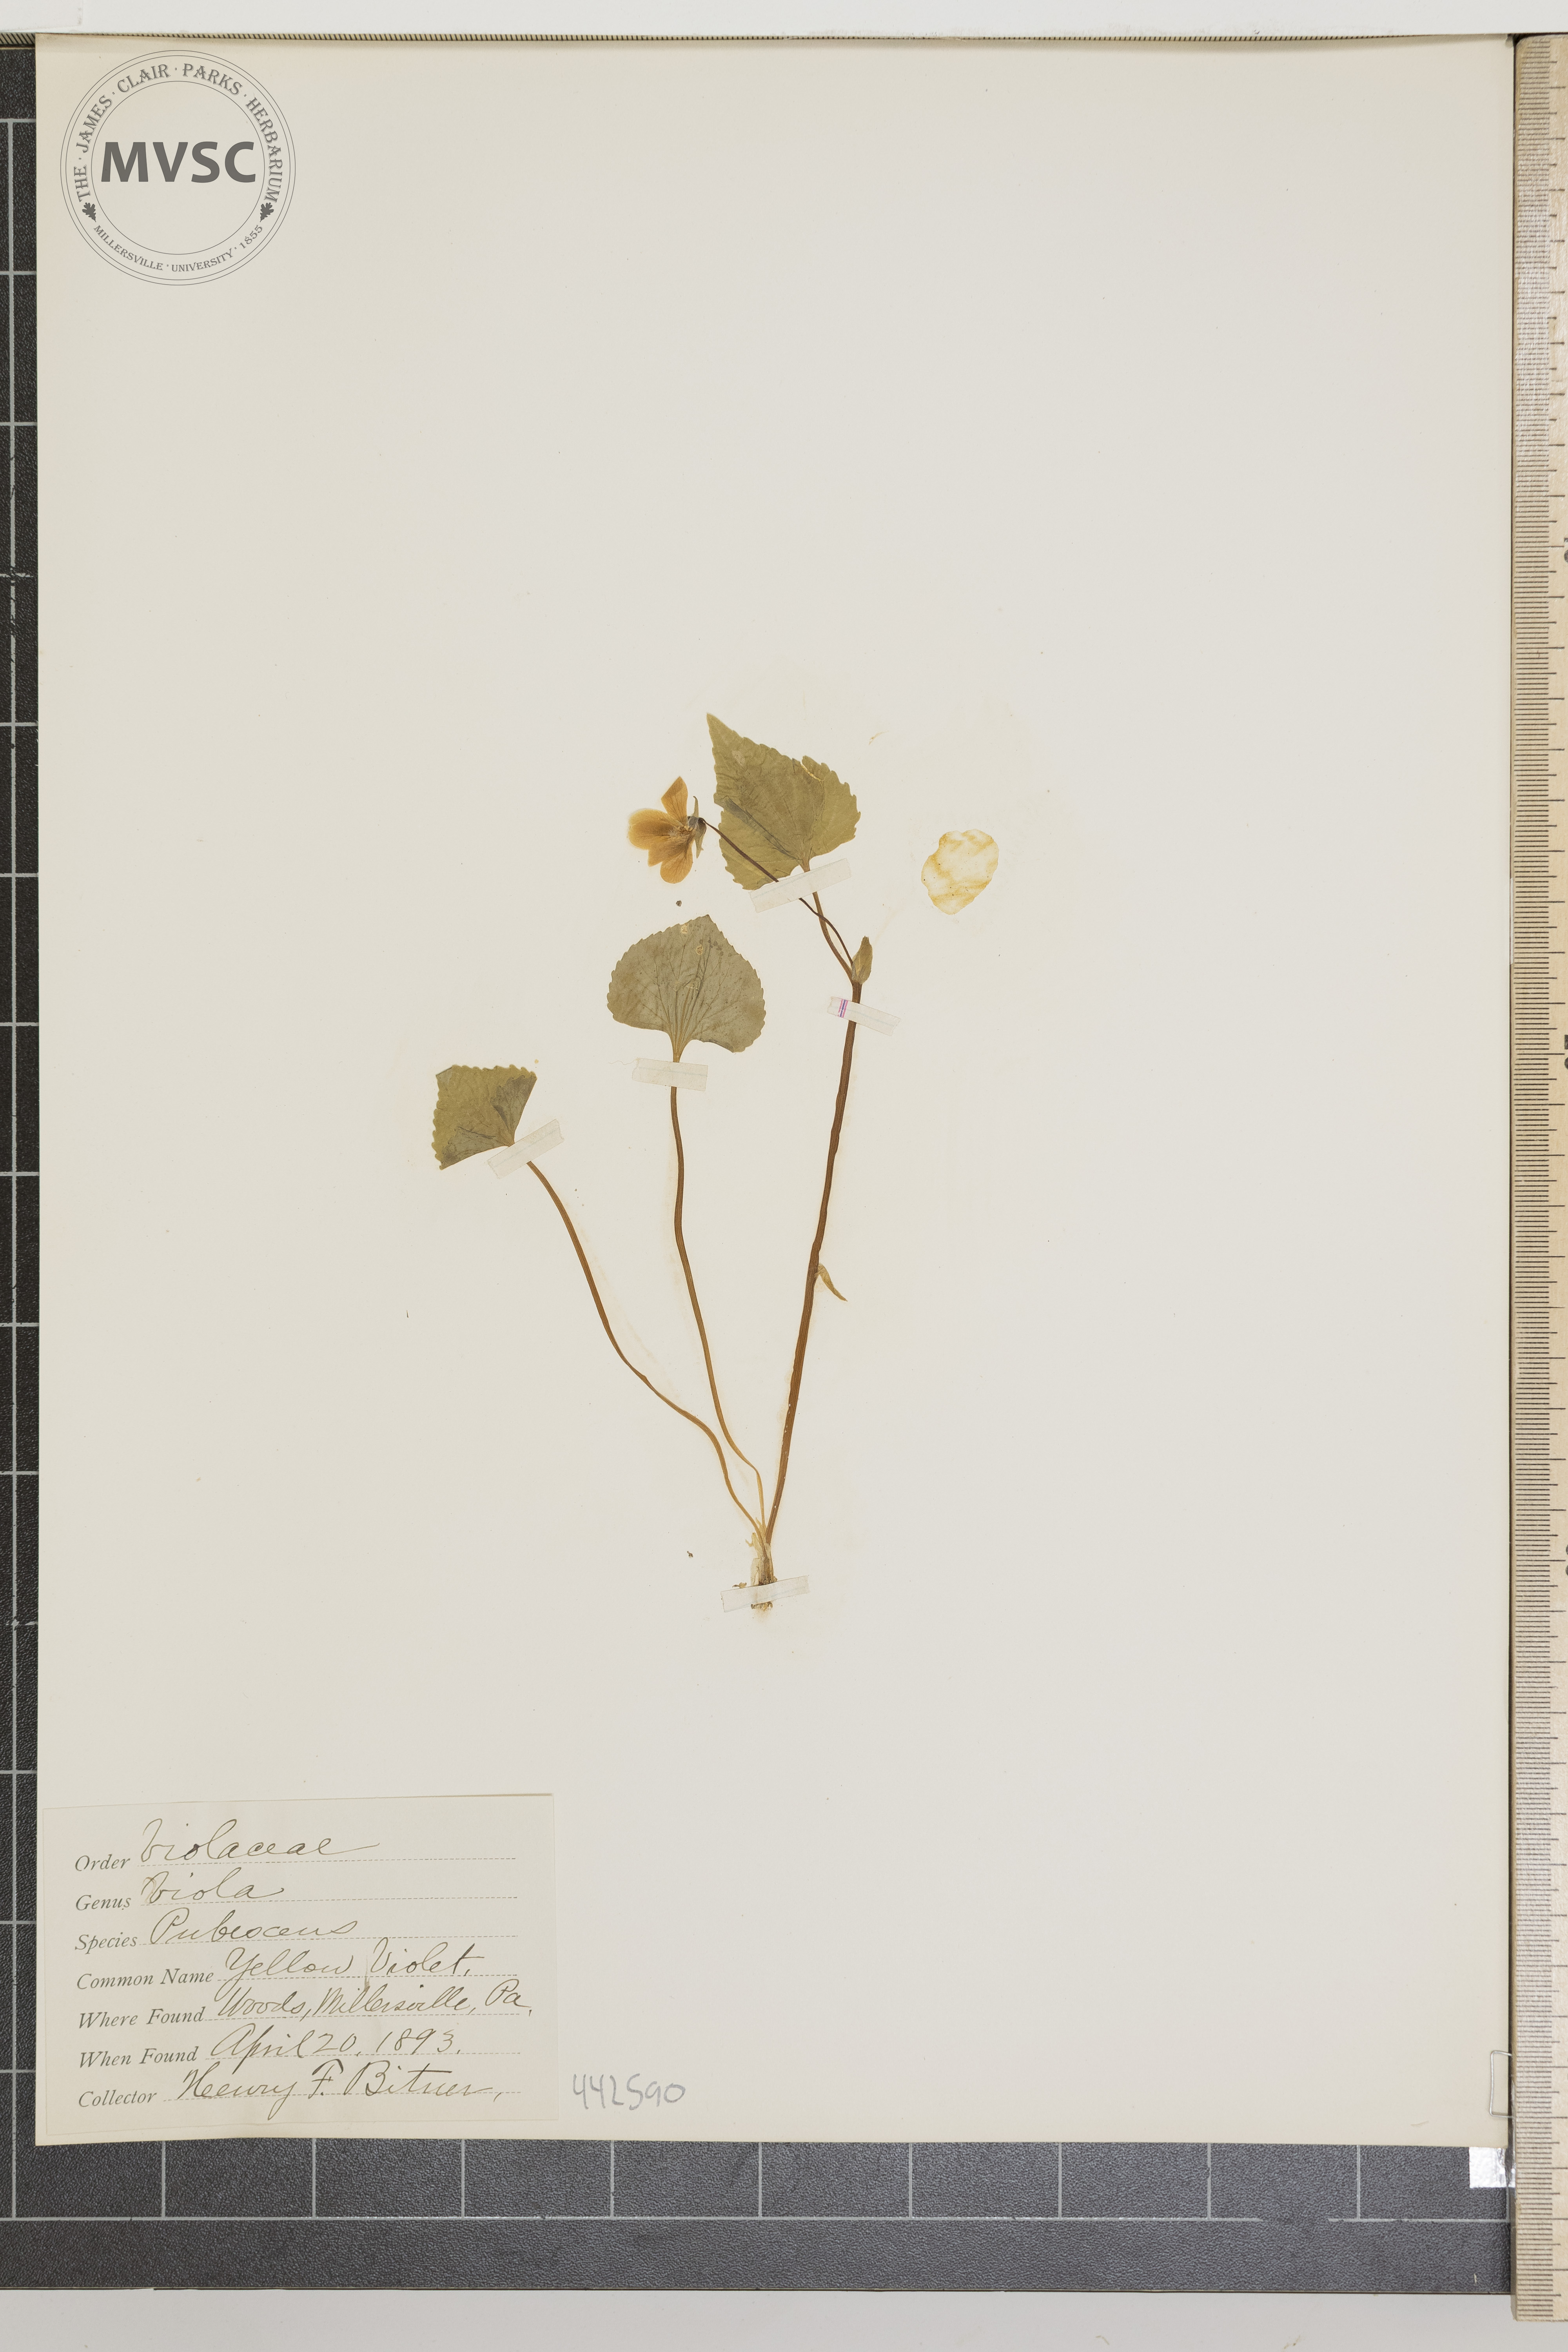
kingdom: Plantae
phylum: Tracheophyta
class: Magnoliopsida
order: Malpighiales
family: Violaceae
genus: Viola
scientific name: Viola pubescens
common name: Yellow violet
